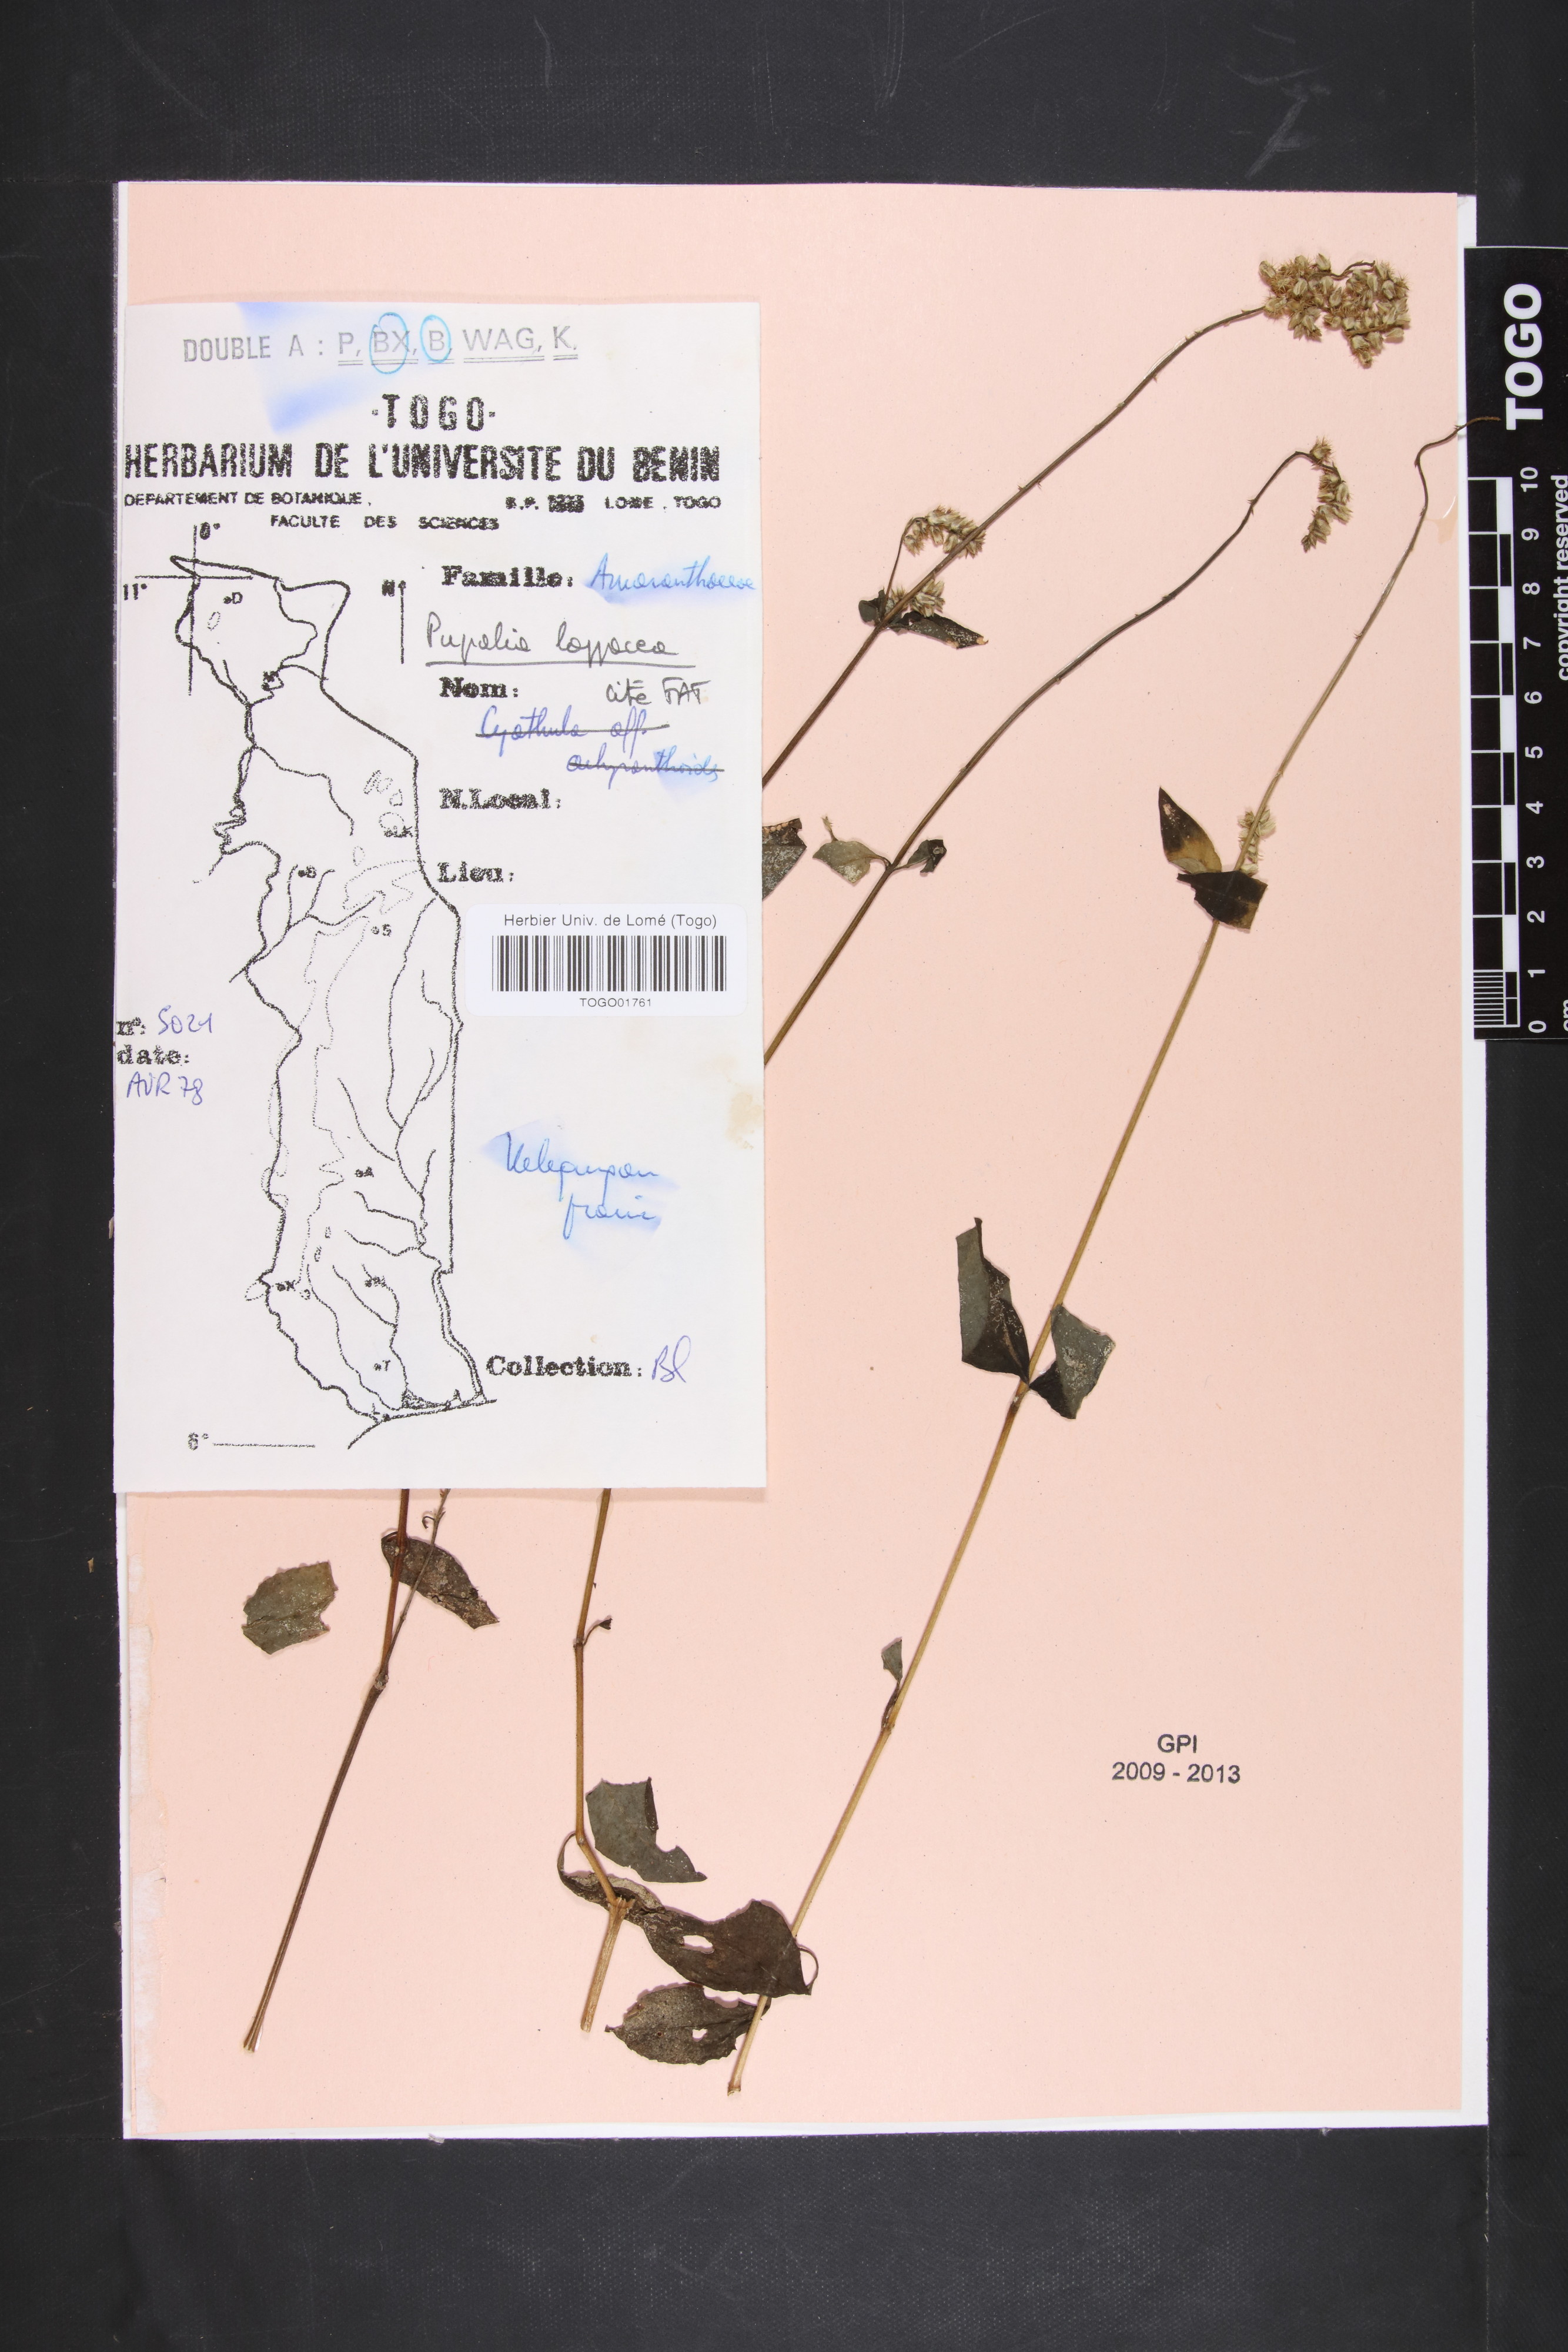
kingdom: Plantae
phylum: Tracheophyta
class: Magnoliopsida
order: Caryophyllales
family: Amaranthaceae
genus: Pupalia
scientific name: Pupalia lappacea
